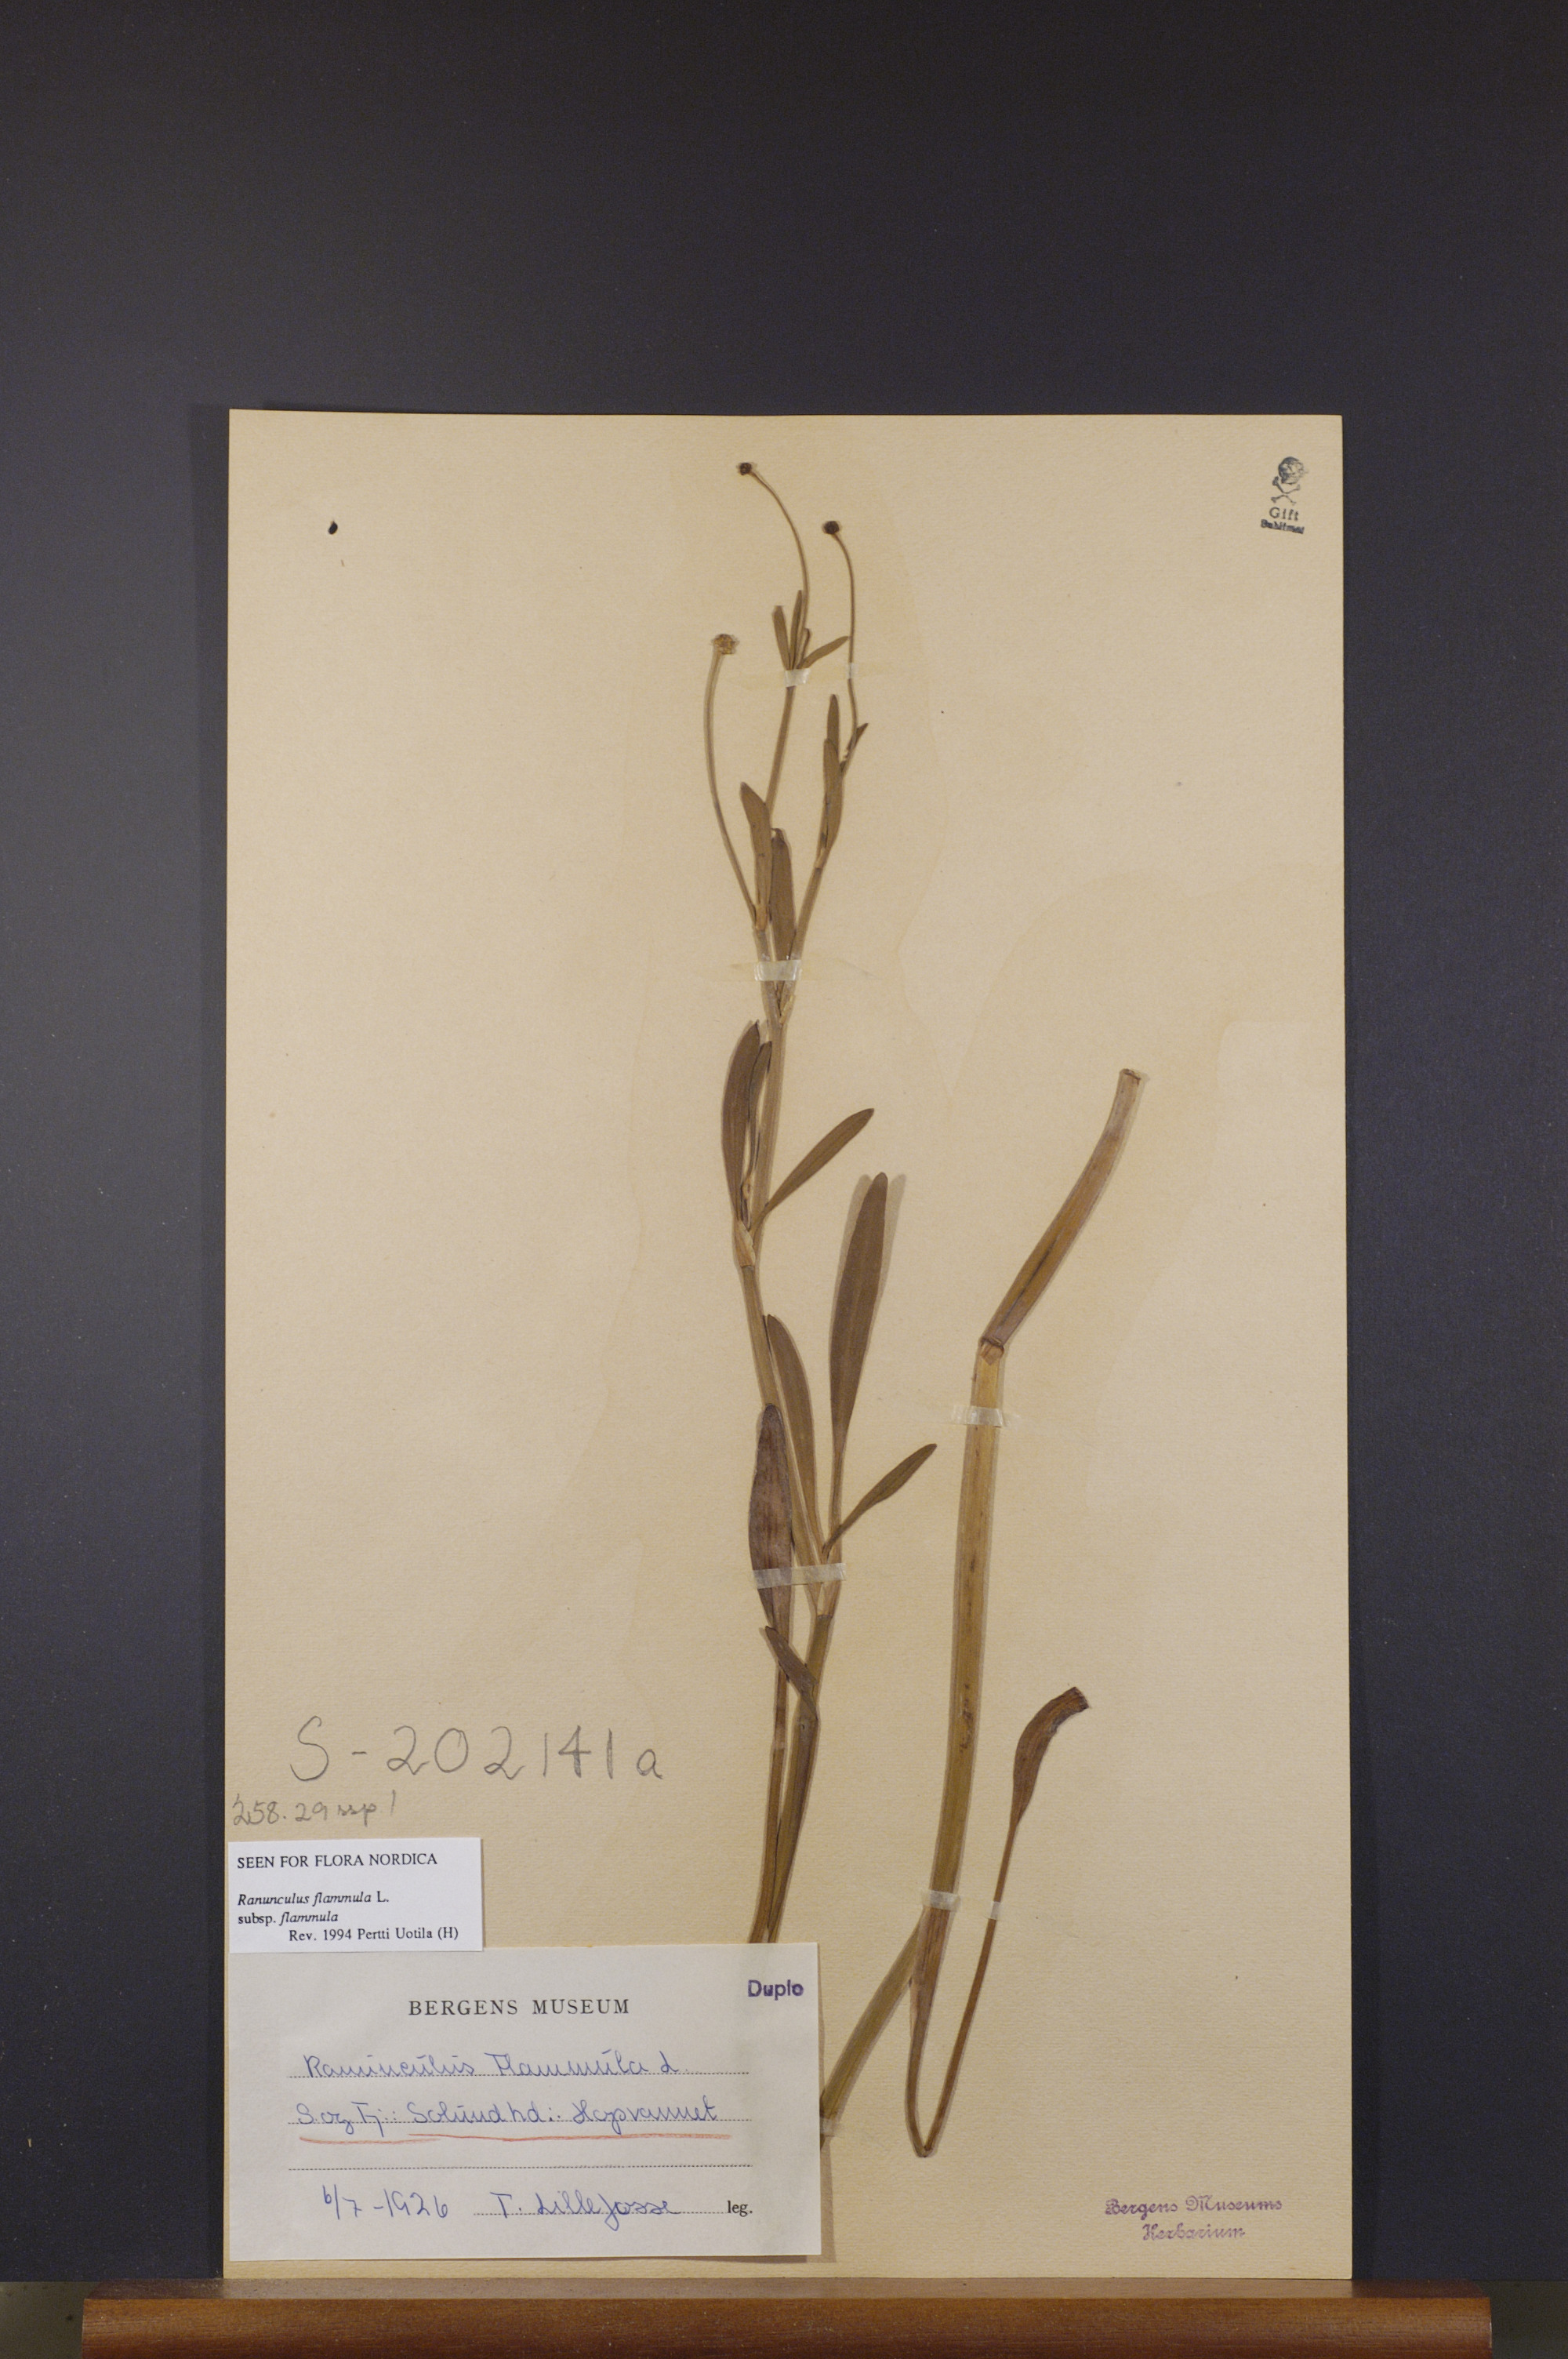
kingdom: Plantae
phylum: Tracheophyta
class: Magnoliopsida
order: Ranunculales
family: Ranunculaceae
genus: Ranunculus
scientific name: Ranunculus flammula
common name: Lesser spearwort
